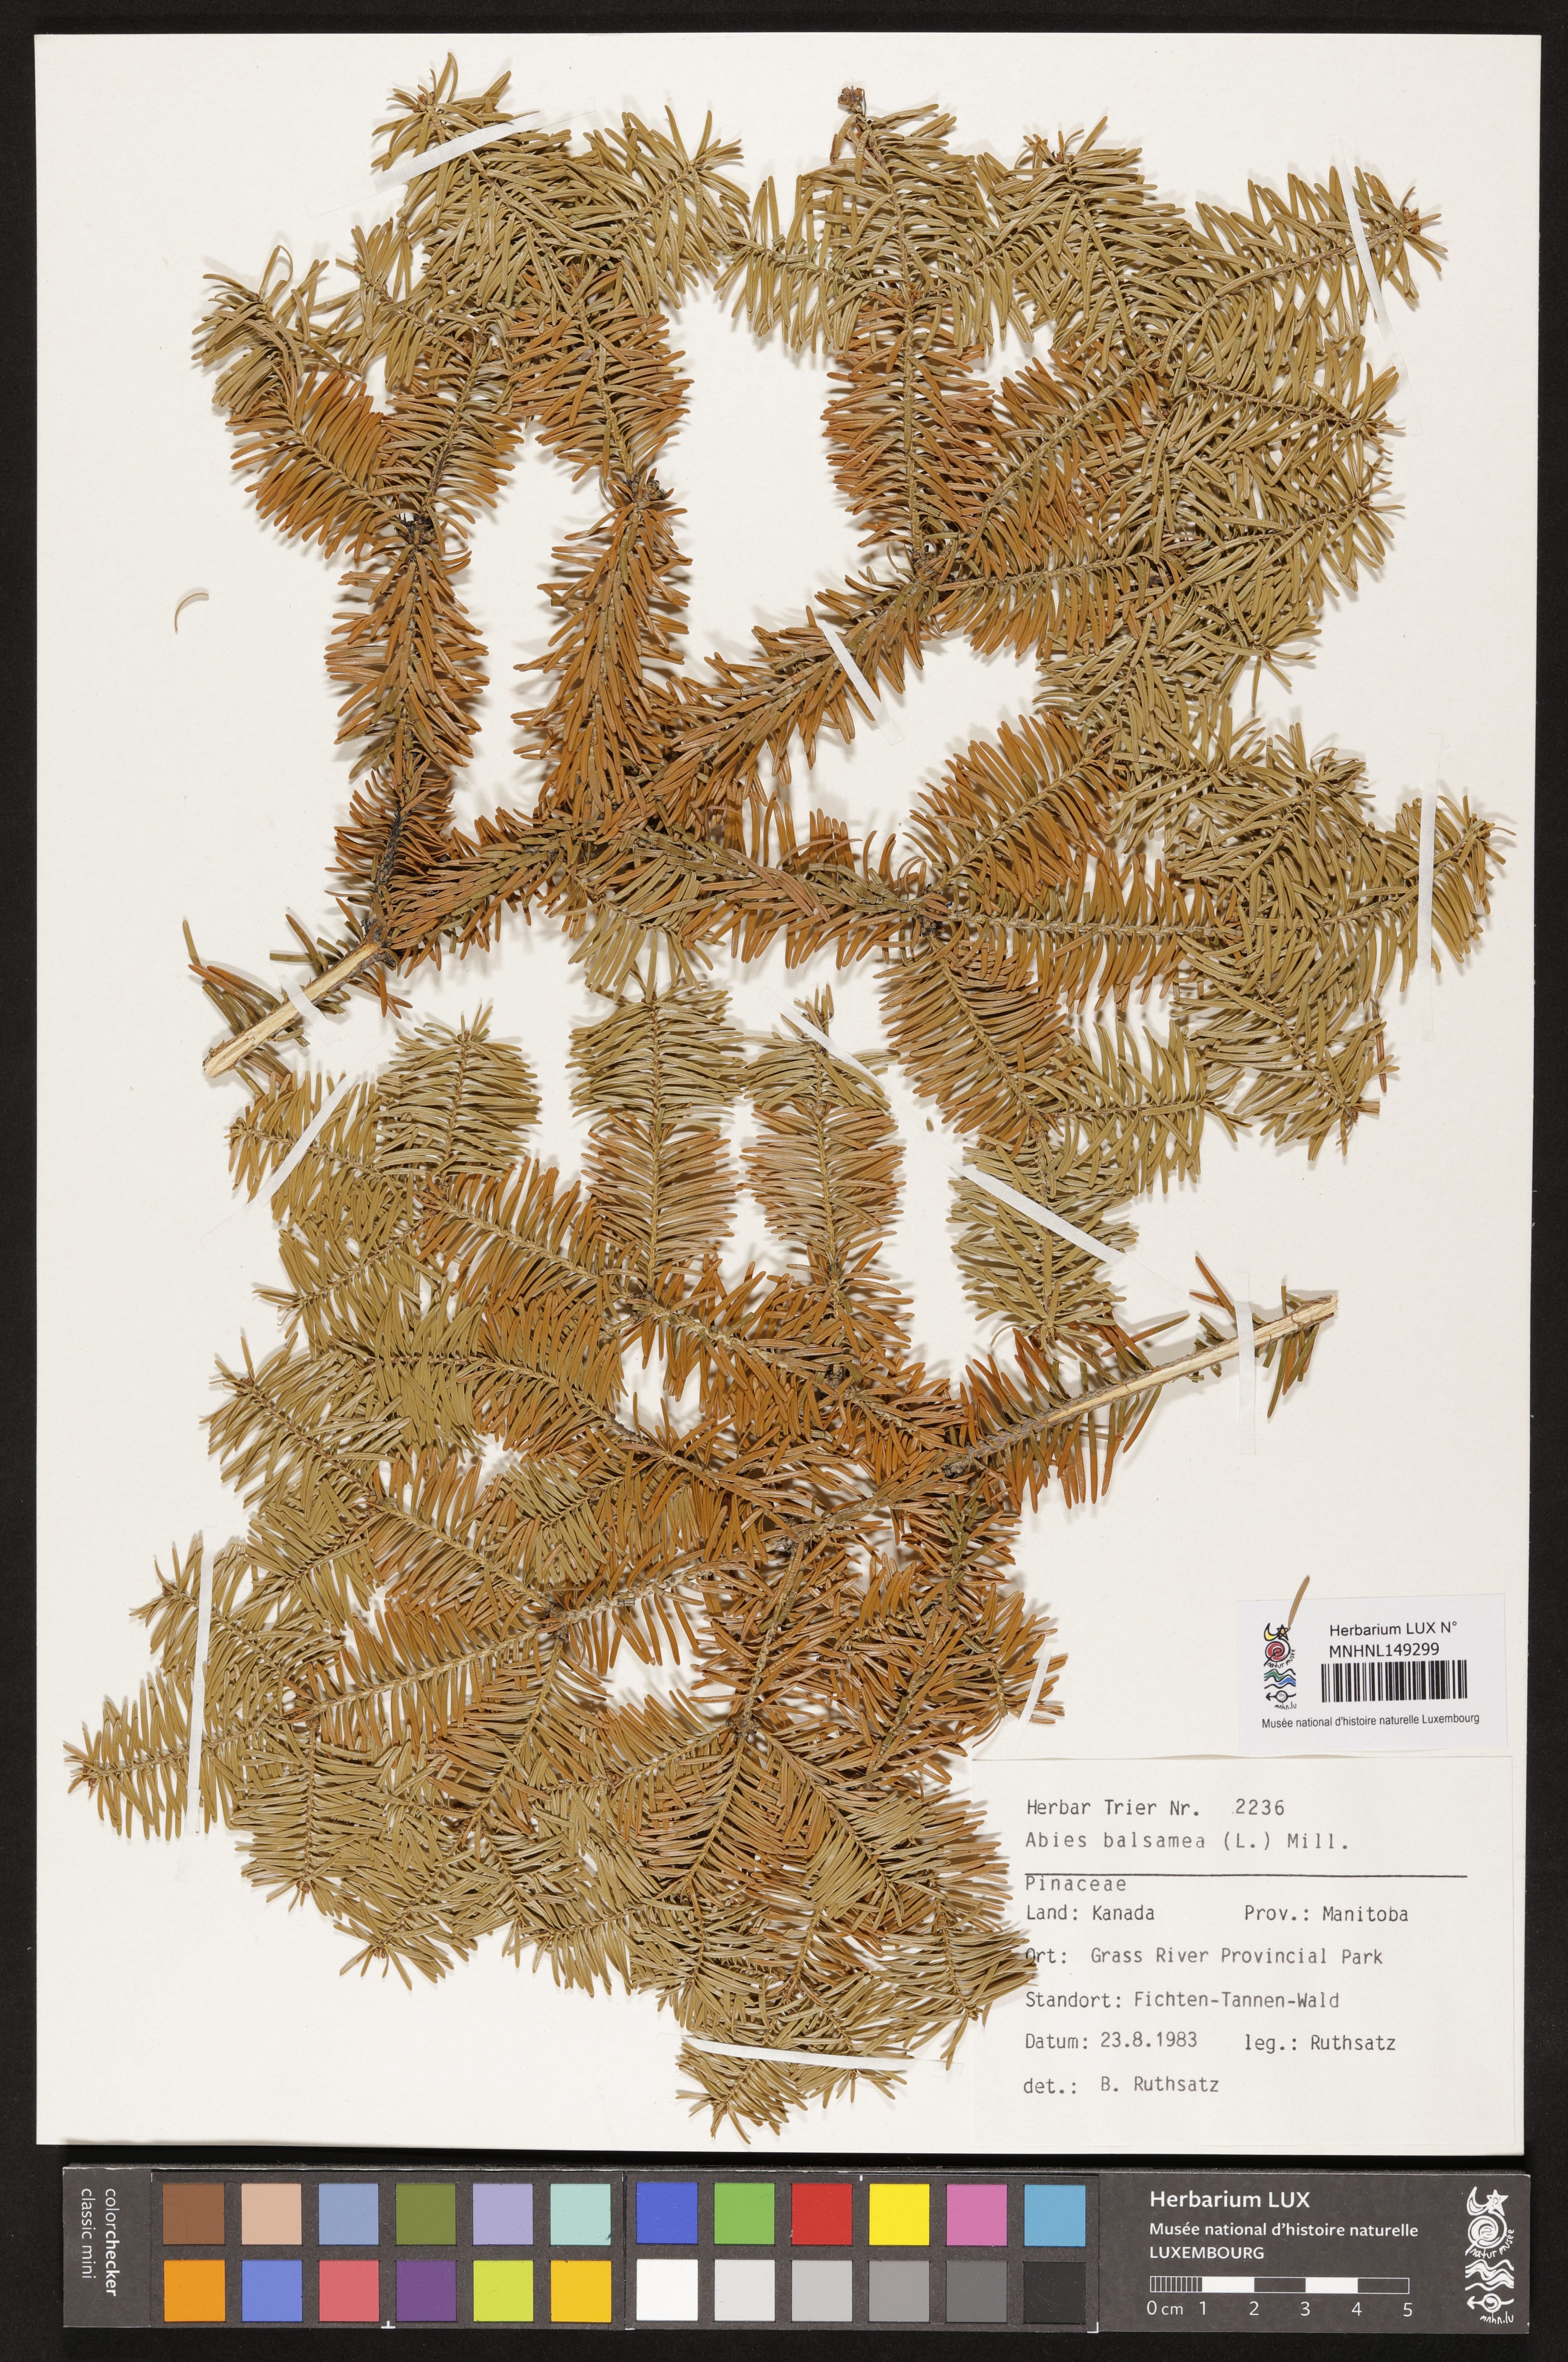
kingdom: Plantae
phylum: Tracheophyta
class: Pinopsida
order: Pinales
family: Pinaceae
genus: Abies
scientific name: Abies balsamea
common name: Balsam fir
